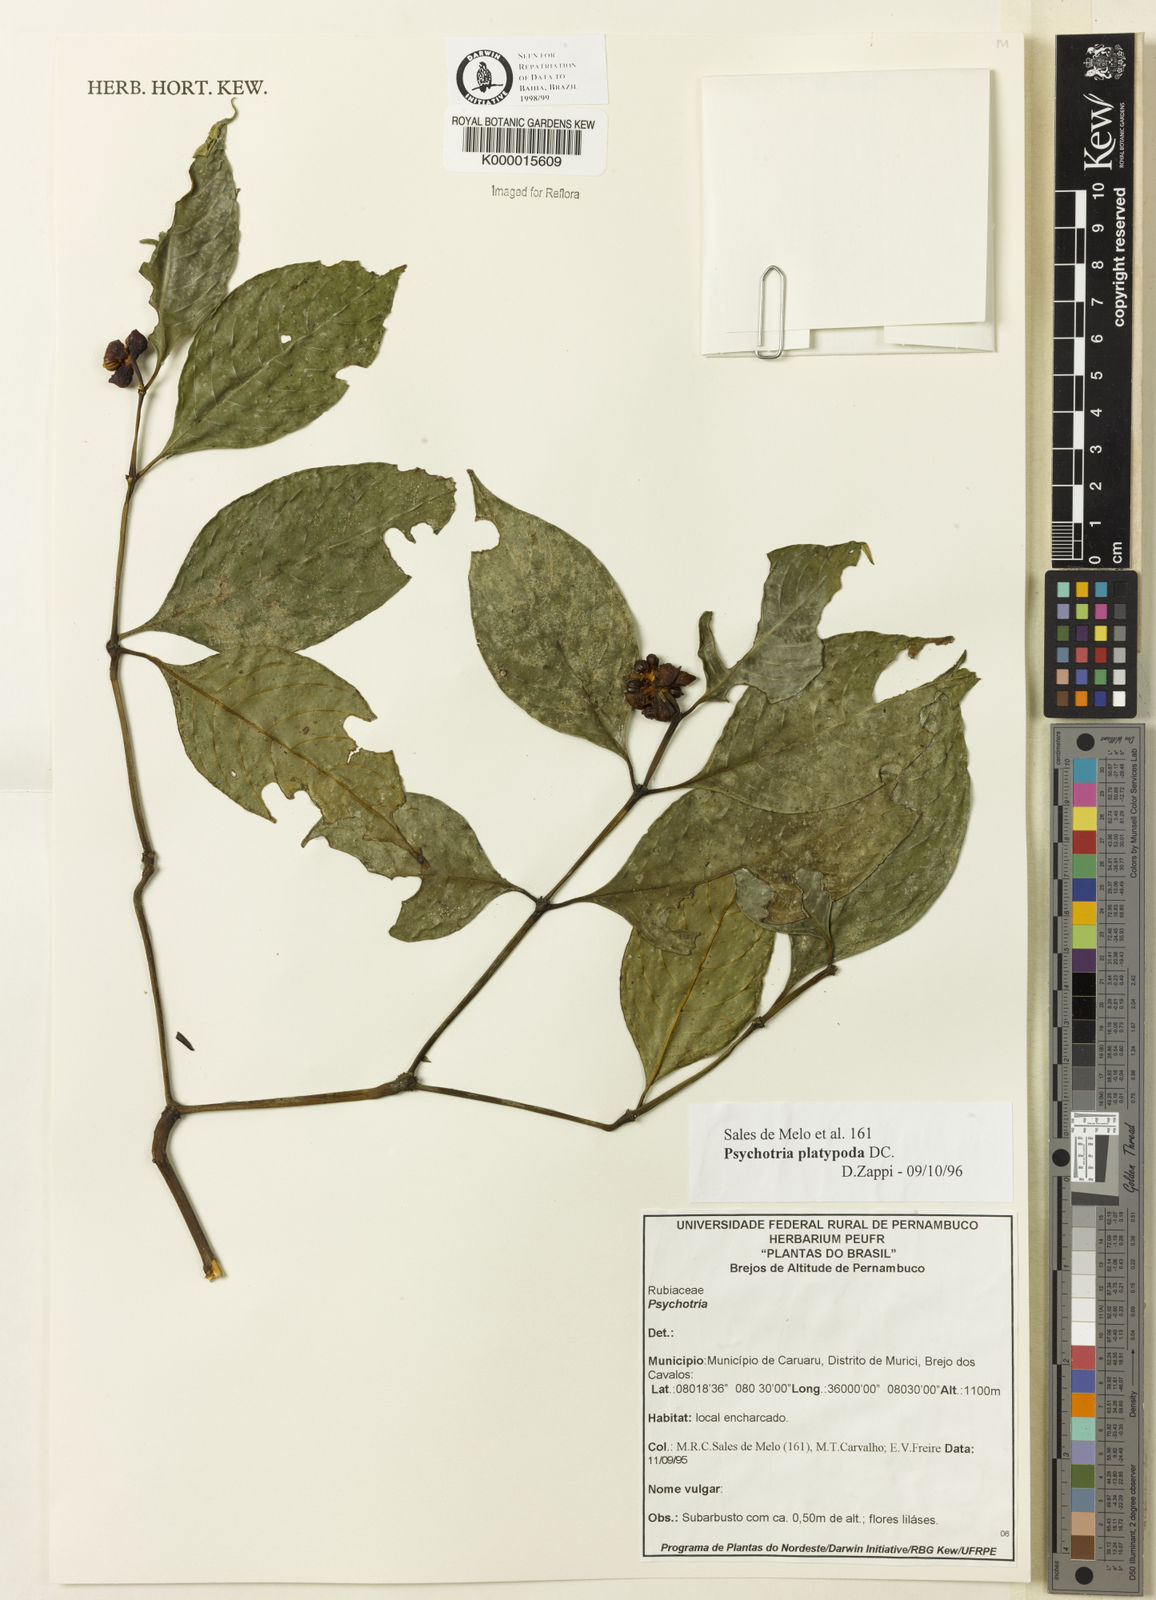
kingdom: Plantae
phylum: Tracheophyta
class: Magnoliopsida
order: Gentianales
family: Rubiaceae
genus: Palicourea
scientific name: Palicourea dichotoma
